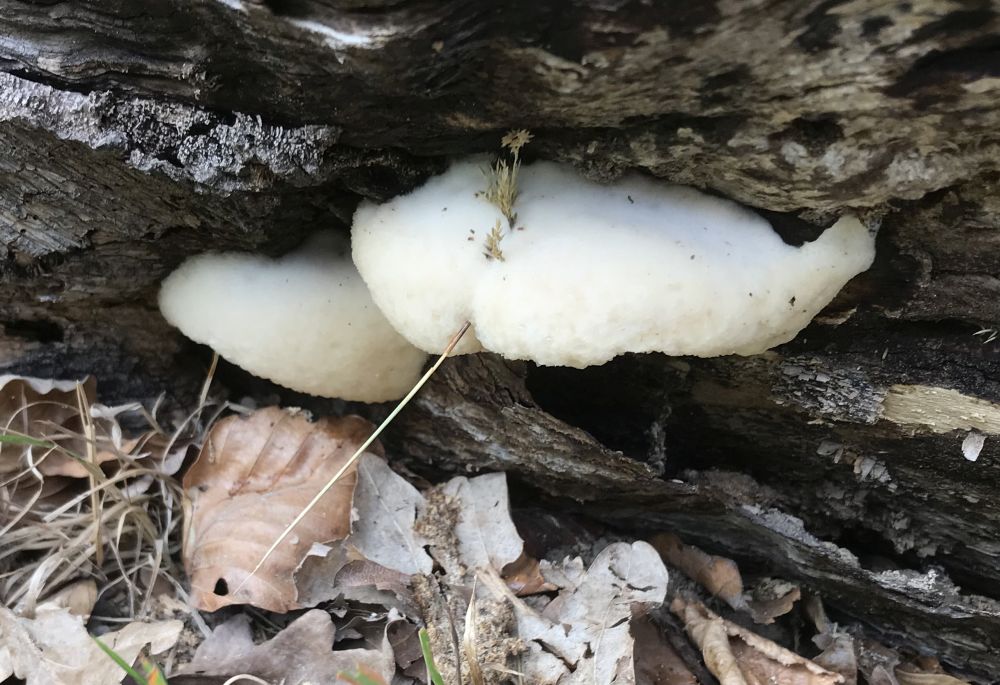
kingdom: Fungi
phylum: Basidiomycota
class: Agaricomycetes
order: Polyporales
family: Meruliaceae
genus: Pappia
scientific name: Pappia fissilis
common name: rosa fedtporesvamp
